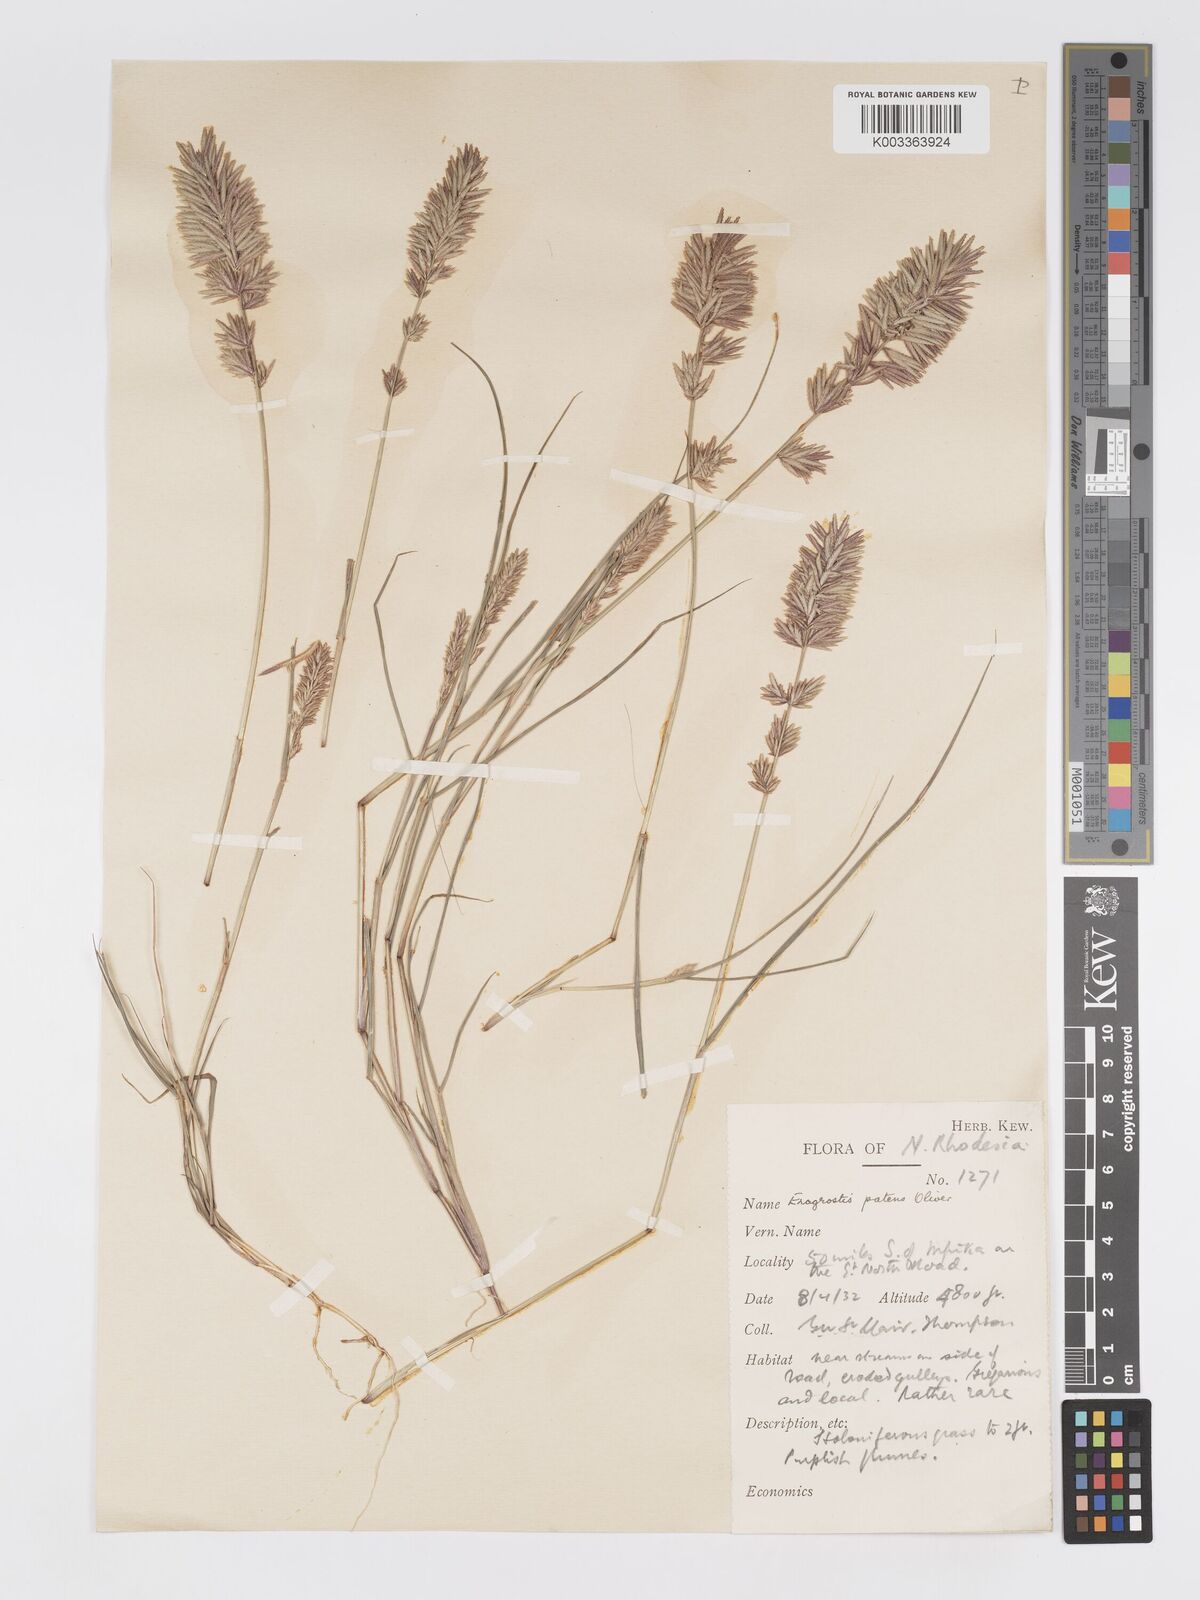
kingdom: Plantae
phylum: Tracheophyta
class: Liliopsida
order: Poales
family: Poaceae
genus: Eragrostis
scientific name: Eragrostis patens
